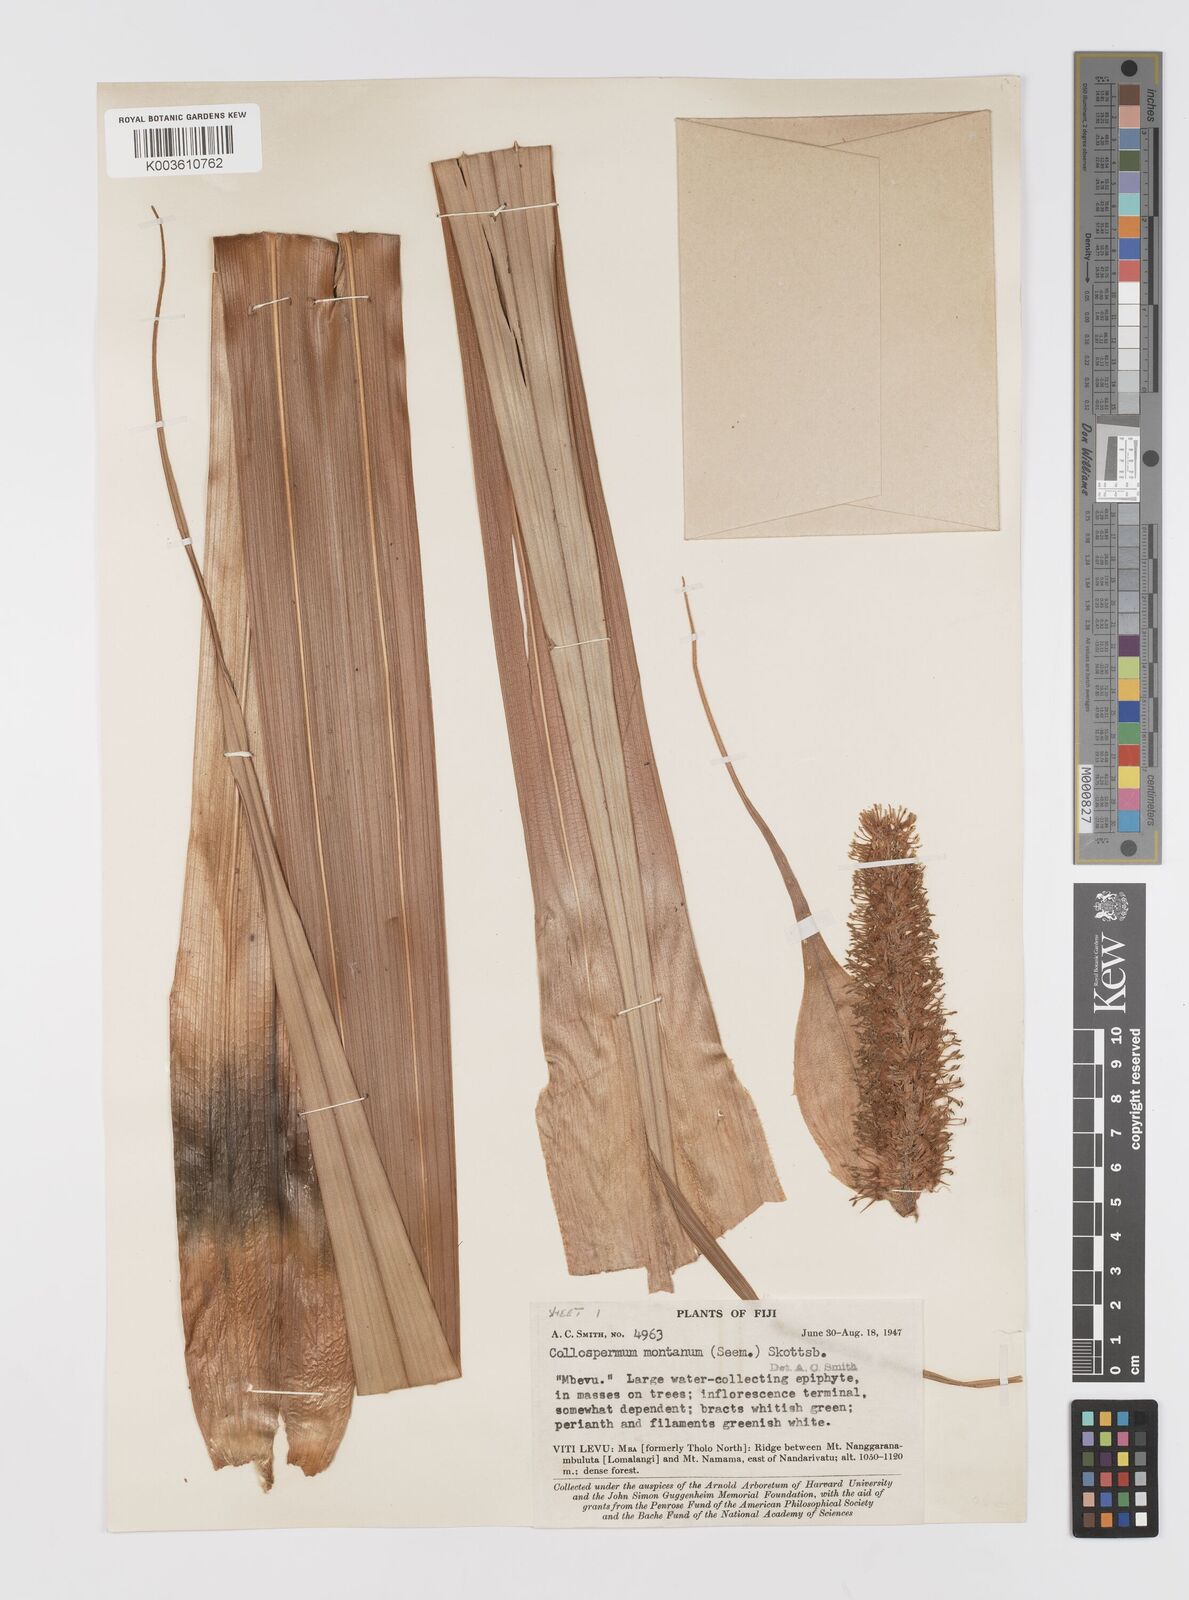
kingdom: Plantae
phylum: Tracheophyta
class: Liliopsida
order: Asparagales
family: Asteliaceae
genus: Astelia
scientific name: Astelia montana
